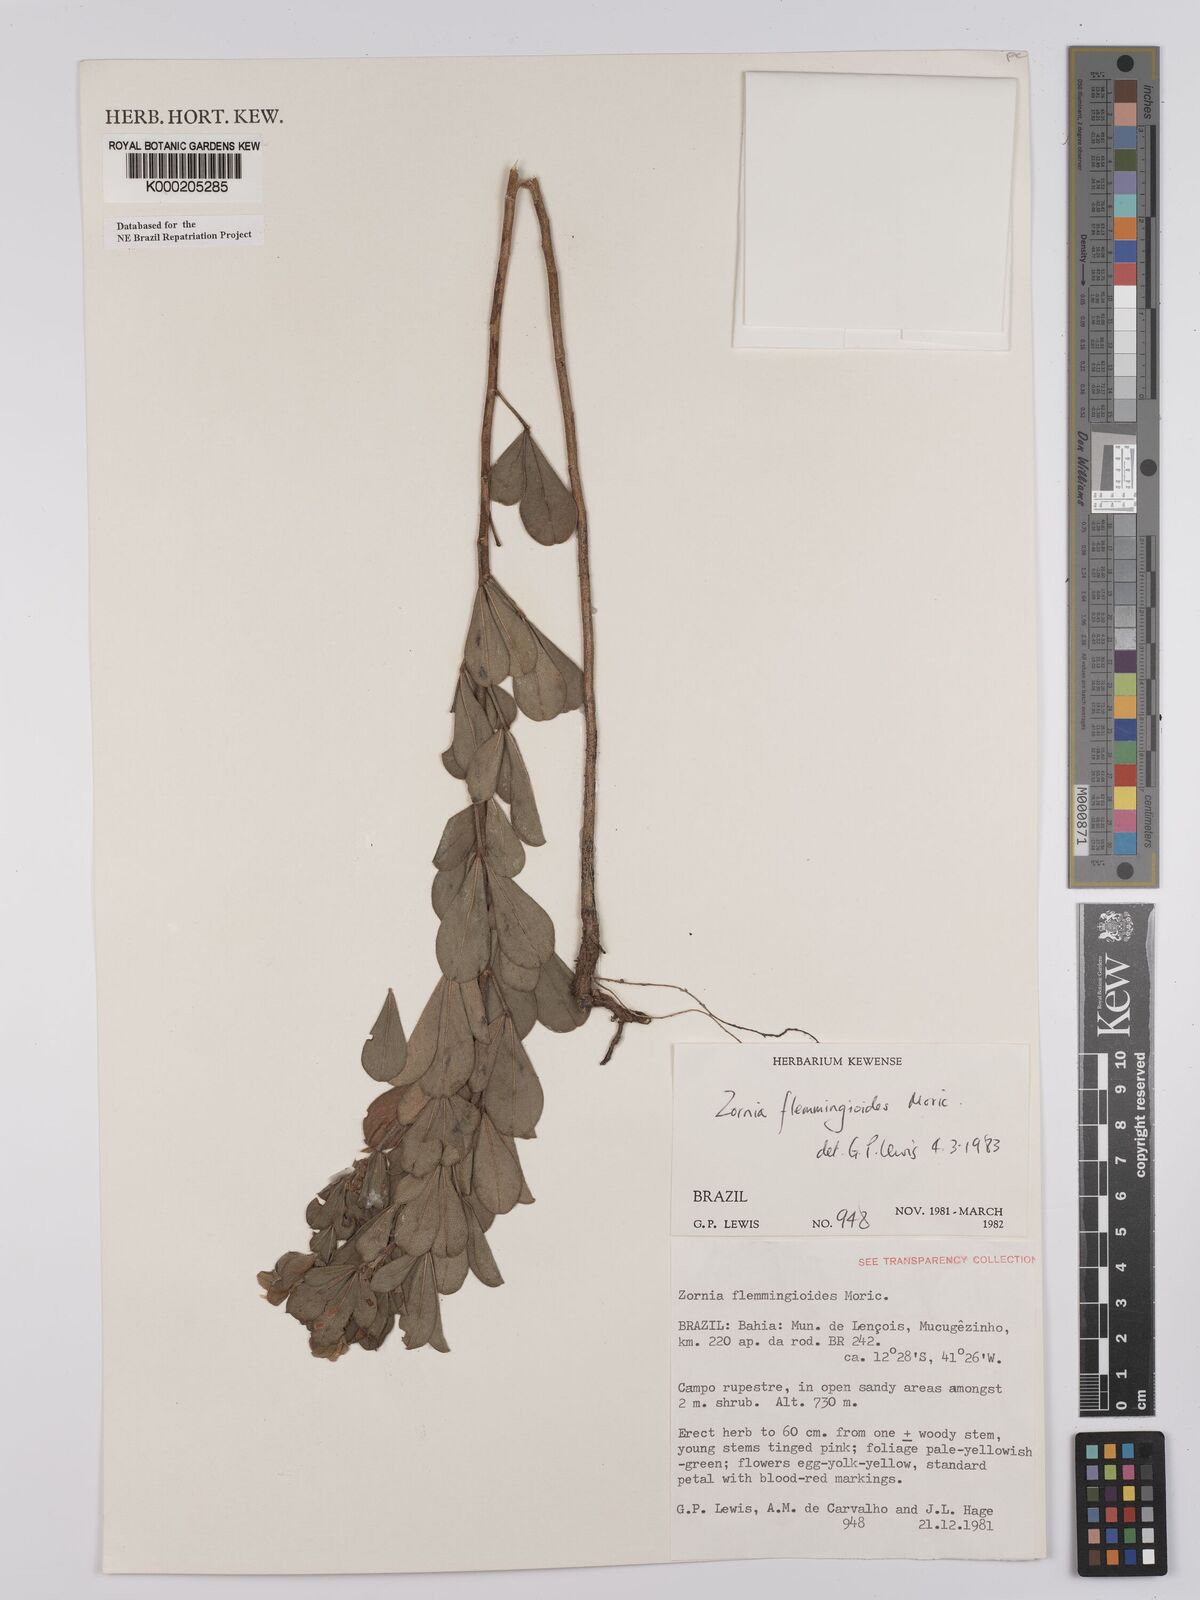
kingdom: Plantae
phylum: Tracheophyta
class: Magnoliopsida
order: Fabales
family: Fabaceae
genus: Zornia
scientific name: Zornia flemmingioides
